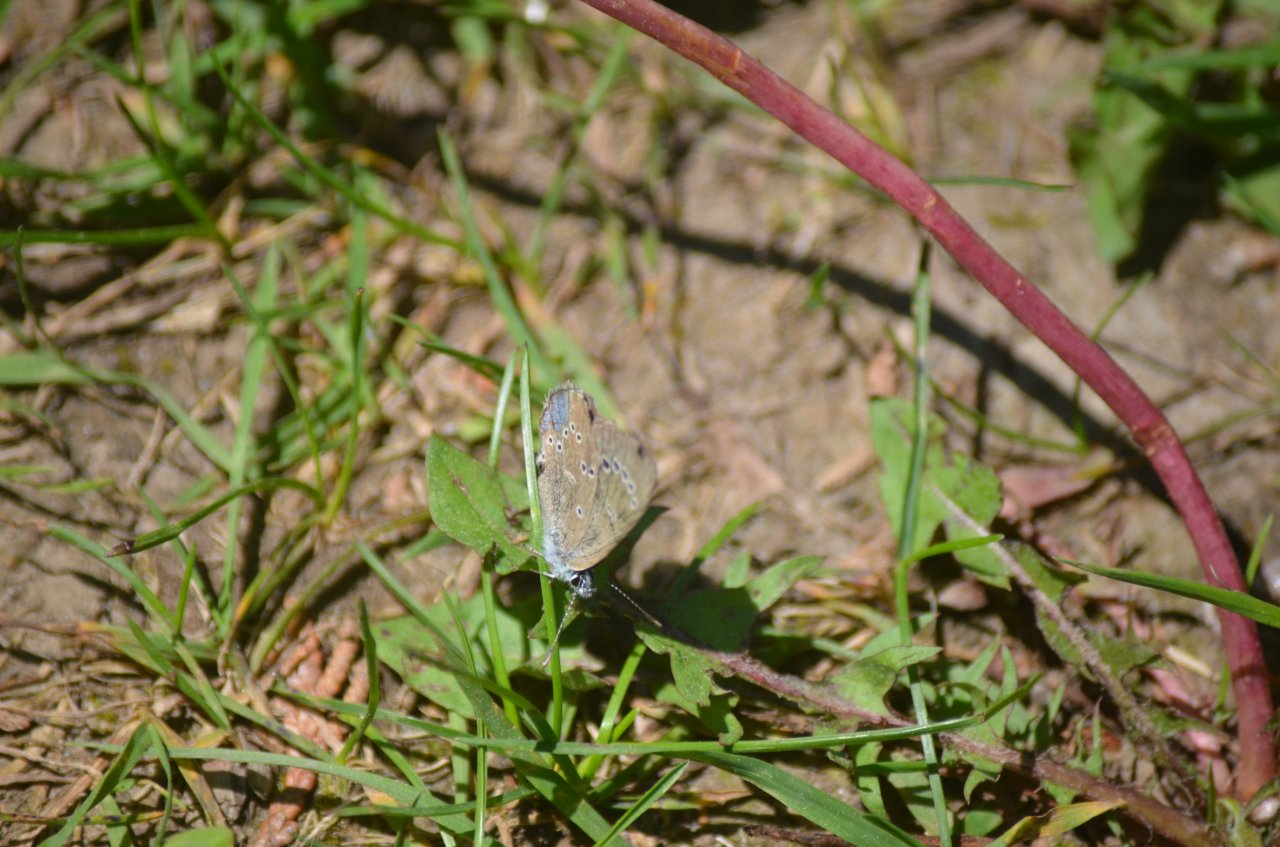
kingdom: Animalia
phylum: Arthropoda
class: Insecta
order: Lepidoptera
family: Lycaenidae
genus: Glaucopsyche
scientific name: Glaucopsyche lygdamus
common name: Silvery Blue
